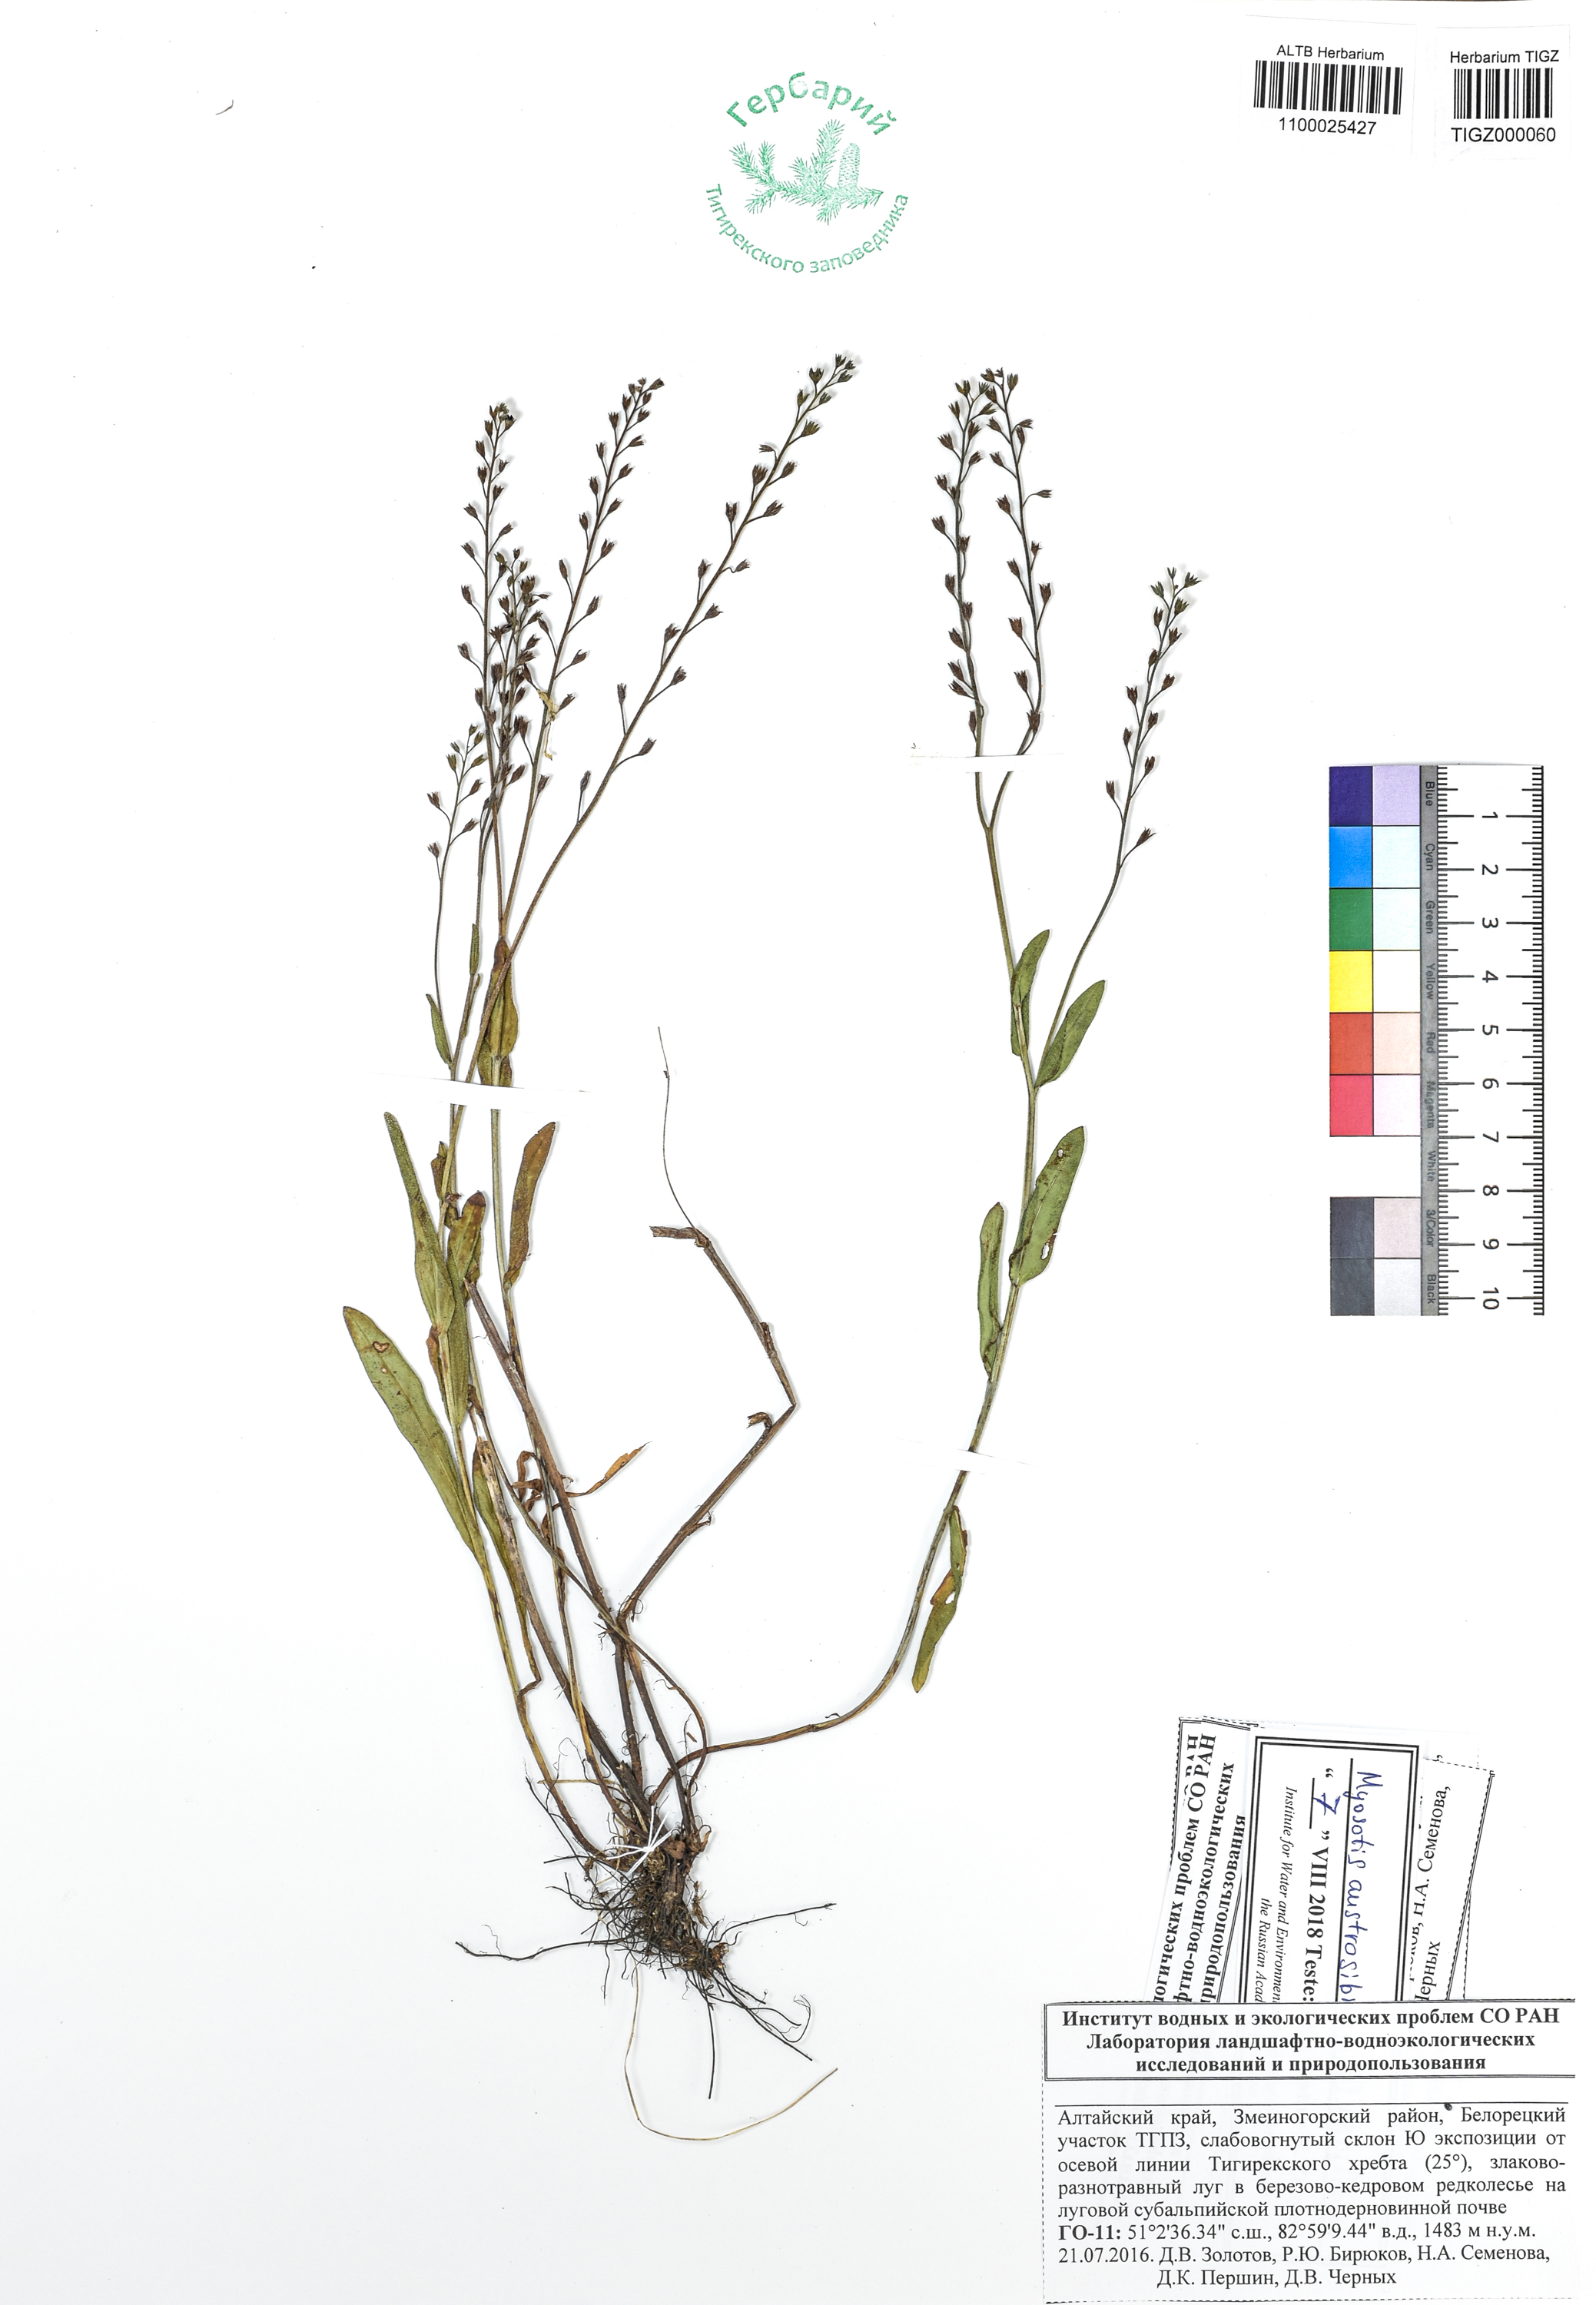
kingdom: Plantae
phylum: Tracheophyta
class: Magnoliopsida
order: Boraginales
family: Boraginaceae
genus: Myosotis
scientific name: Myosotis austrosibirica
